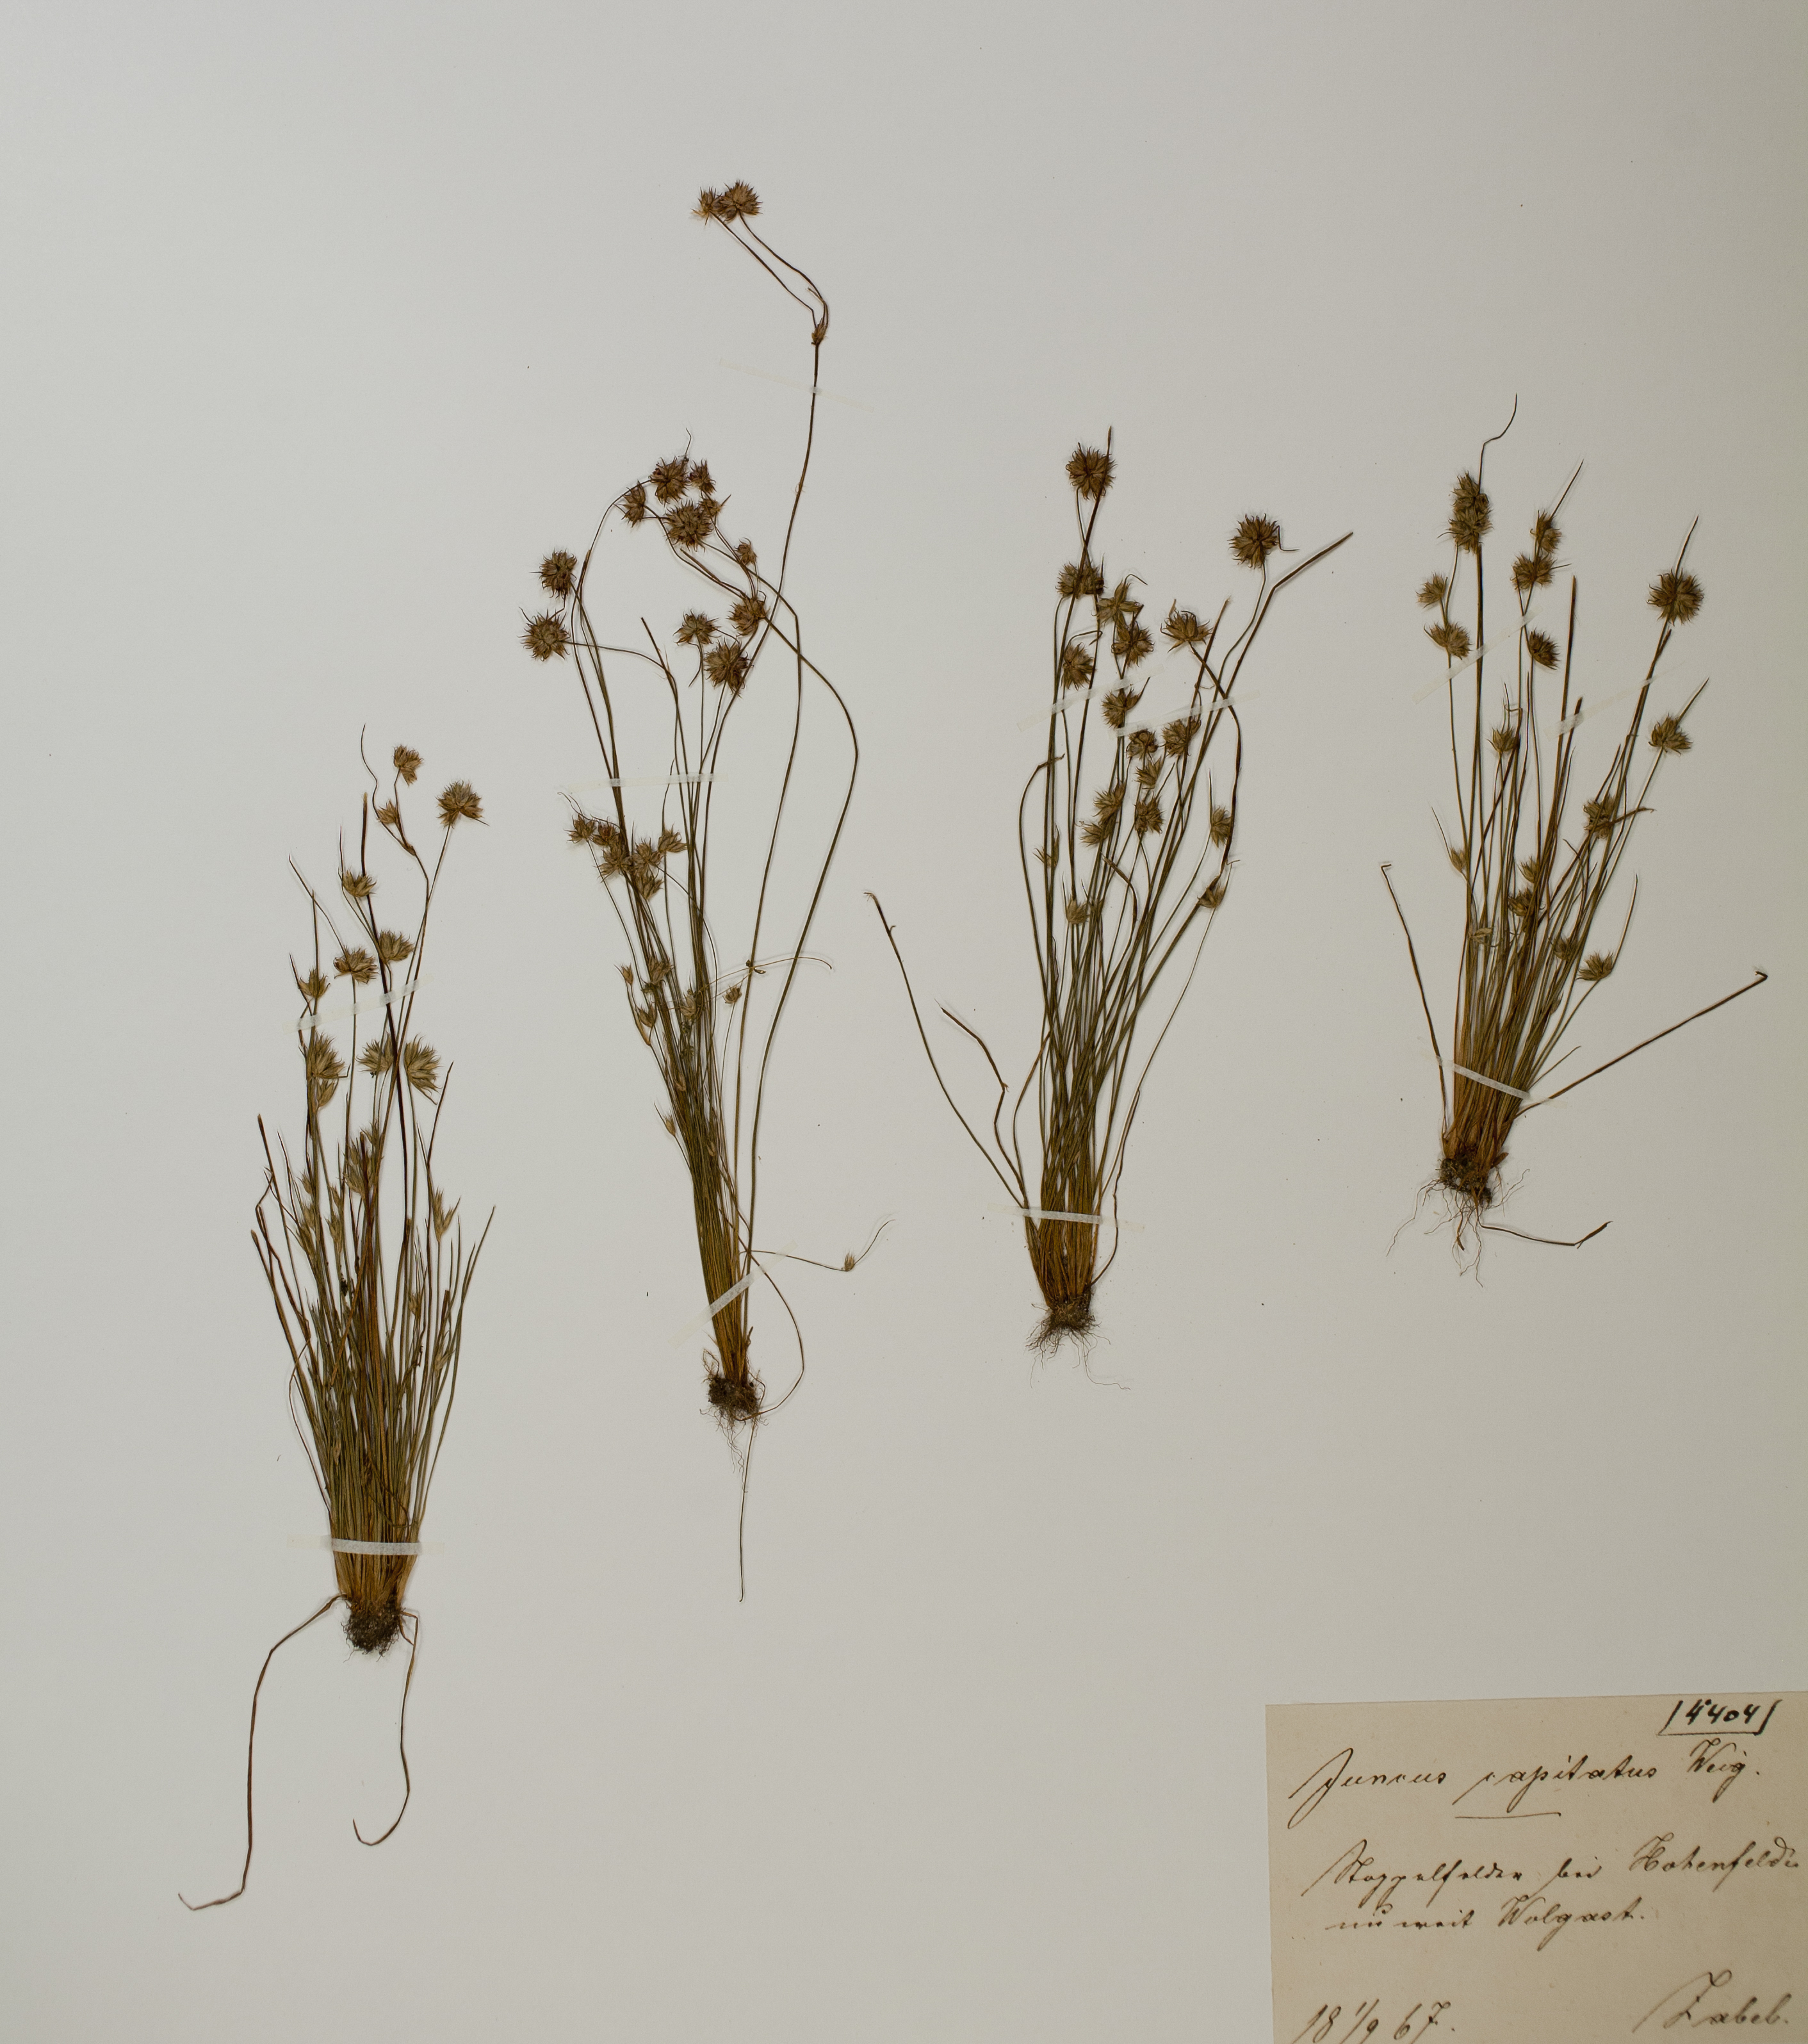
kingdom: Plantae
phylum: Tracheophyta
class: Liliopsida
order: Poales
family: Juncaceae
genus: Juncus
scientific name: Juncus capitatus
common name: Dwarf rush
